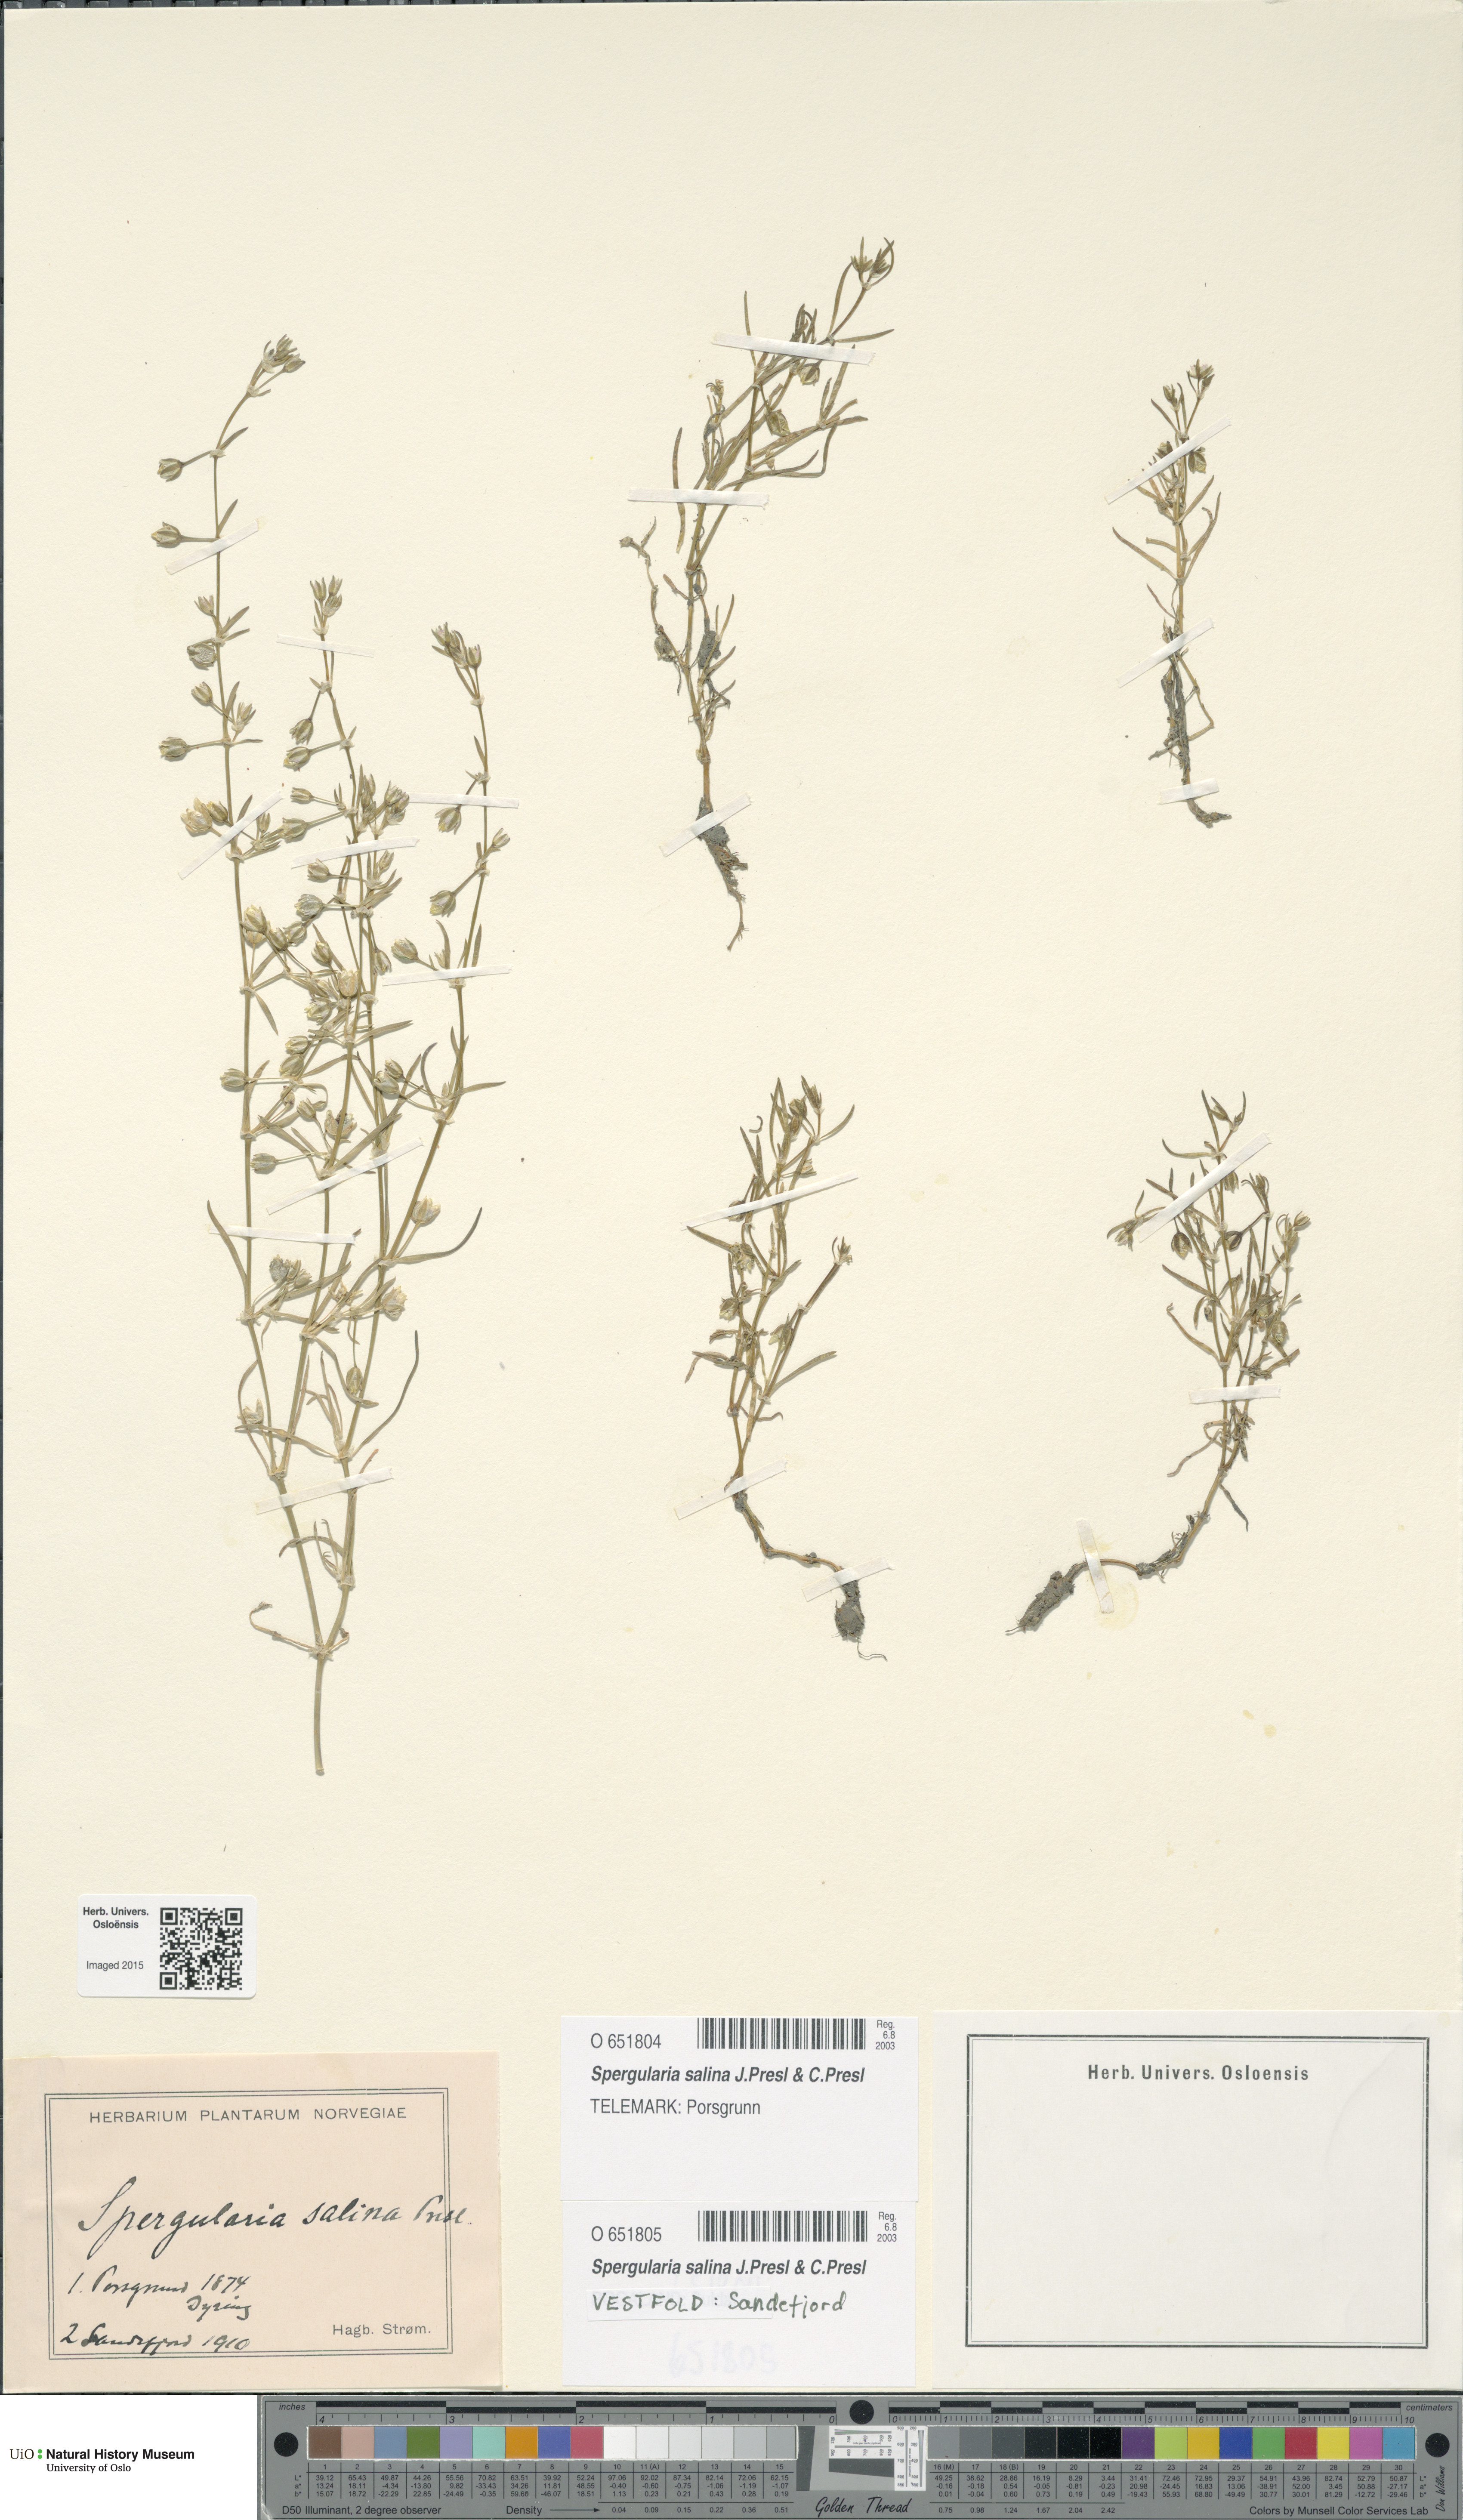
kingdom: Plantae
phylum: Tracheophyta
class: Magnoliopsida
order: Caryophyllales
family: Caryophyllaceae
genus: Spergularia
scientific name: Spergularia marina
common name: Lesser sea-spurrey
